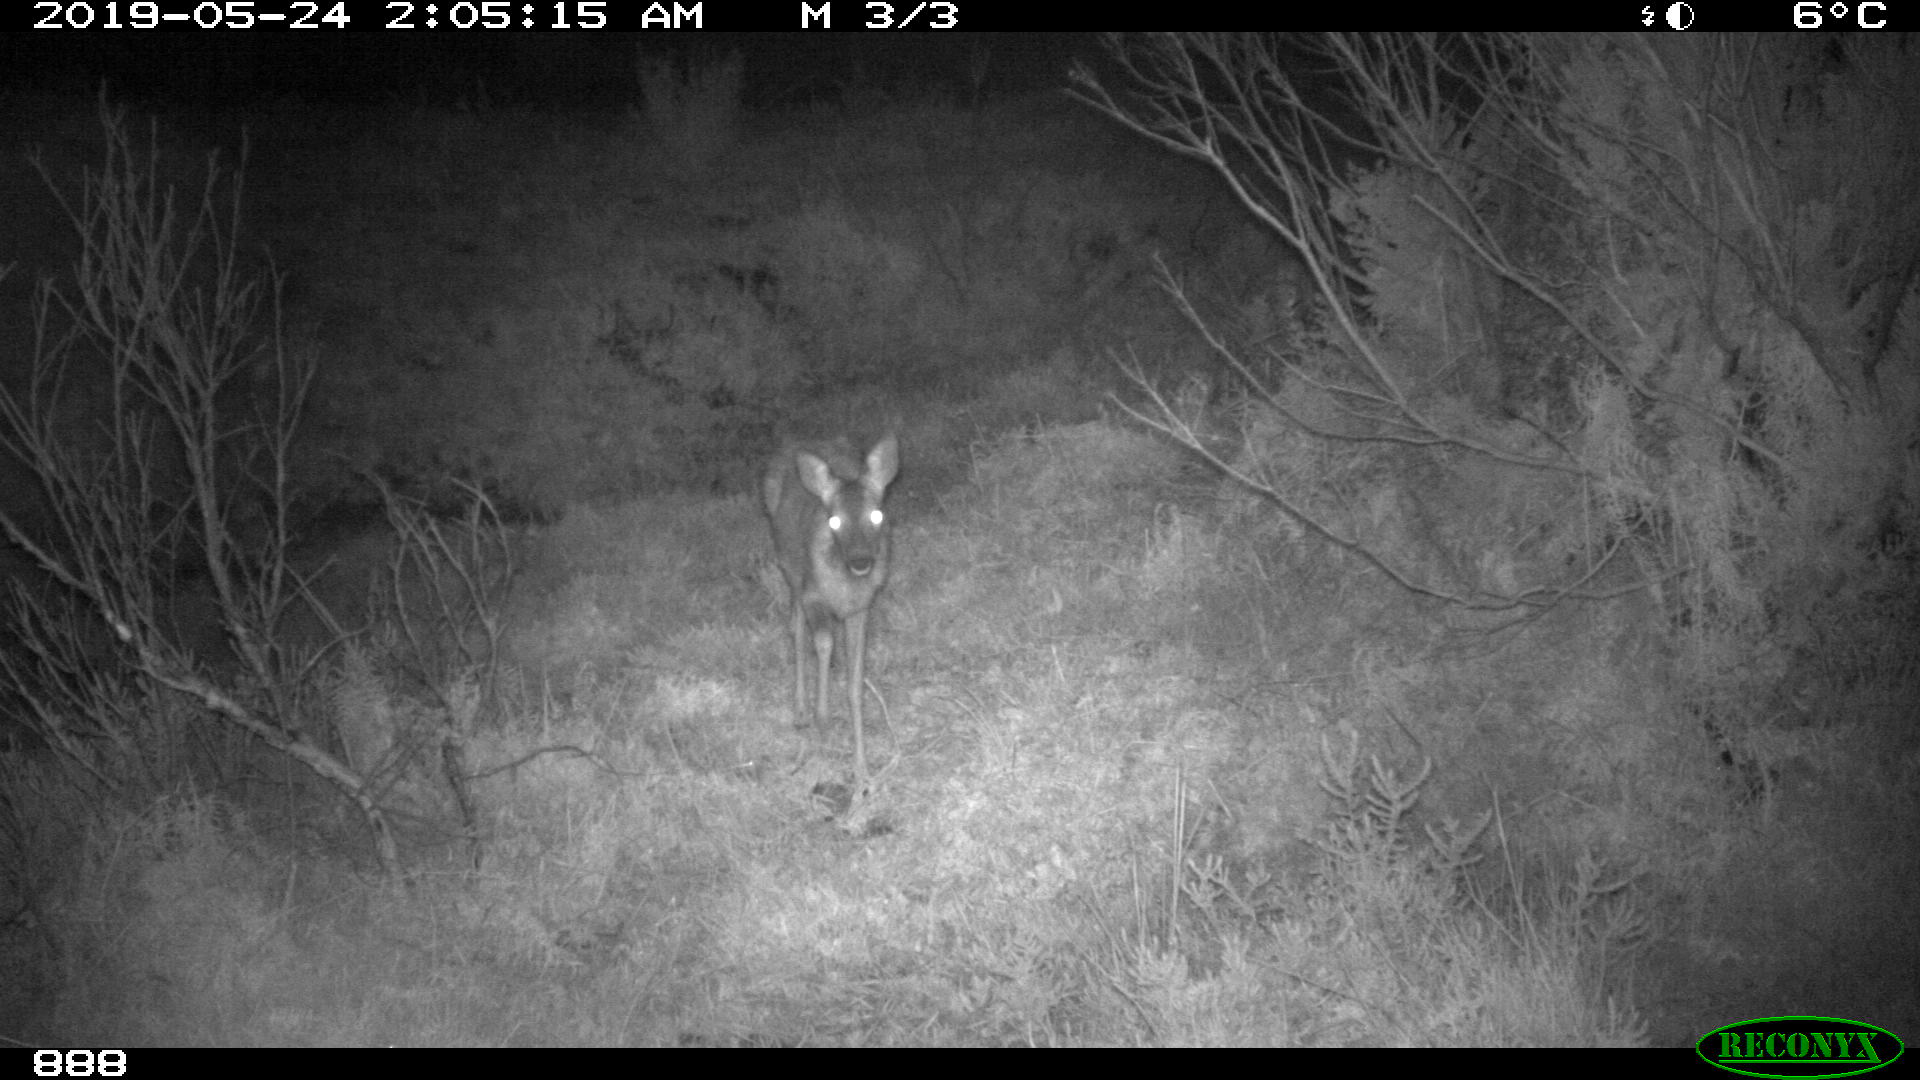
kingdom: Animalia
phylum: Chordata
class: Mammalia
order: Artiodactyla
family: Cervidae
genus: Capreolus
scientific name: Capreolus capreolus
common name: Western roe deer
